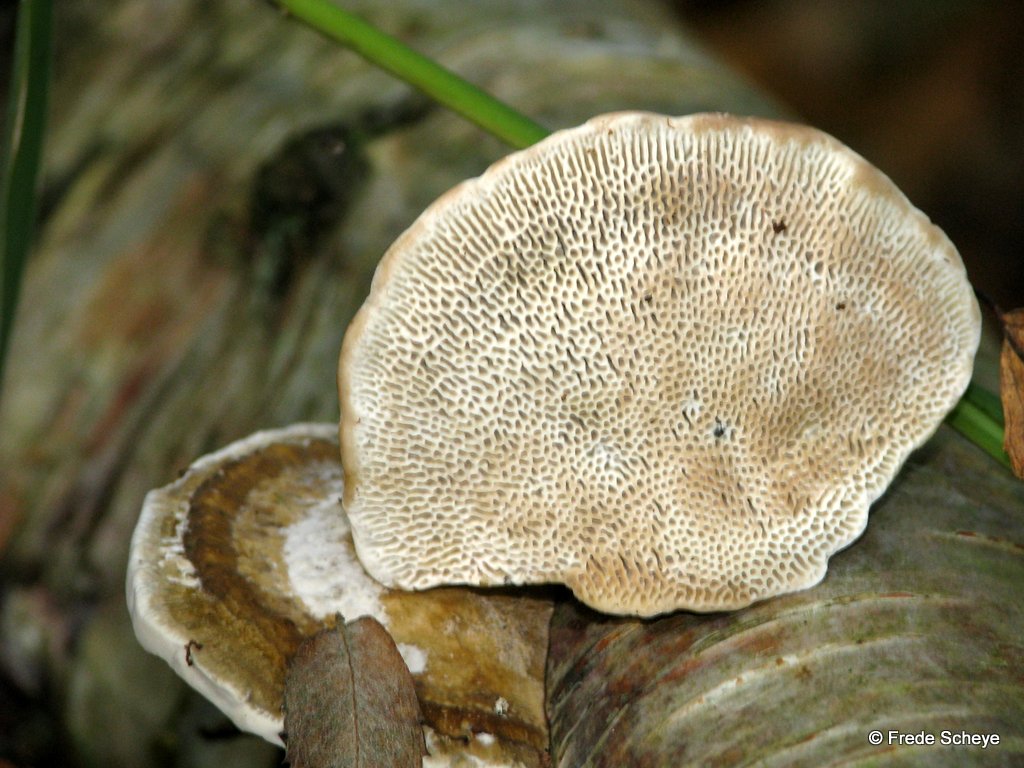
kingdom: Fungi
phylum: Basidiomycota
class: Agaricomycetes
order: Polyporales
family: Polyporaceae
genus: Daedaleopsis
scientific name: Daedaleopsis confragosa
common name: rødmende læderporesvamp
